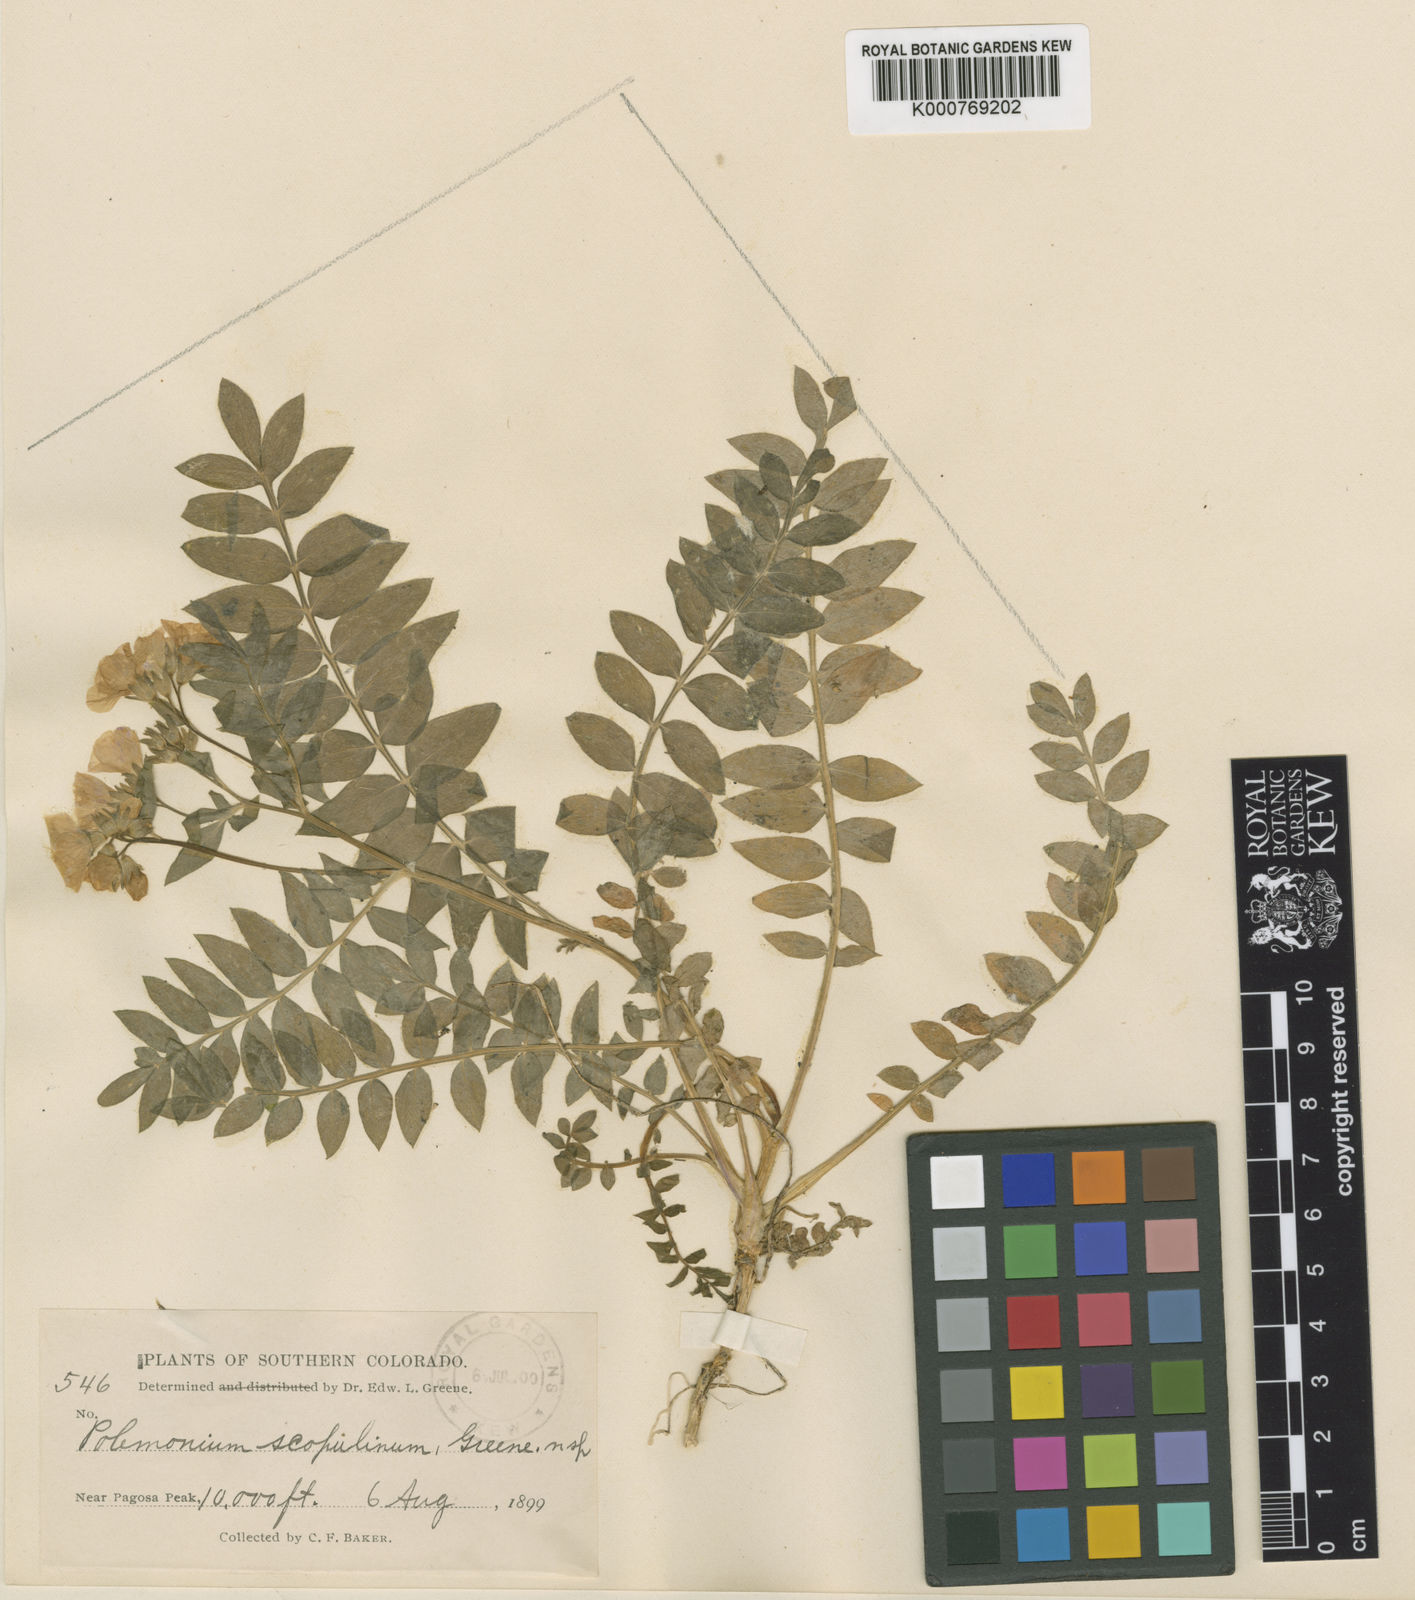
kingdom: Plantae
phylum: Tracheophyta
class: Magnoliopsida
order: Ericales
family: Polemoniaceae
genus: Polemonium
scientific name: Polemonium pulcherrimum
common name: Short jacob's-ladder
